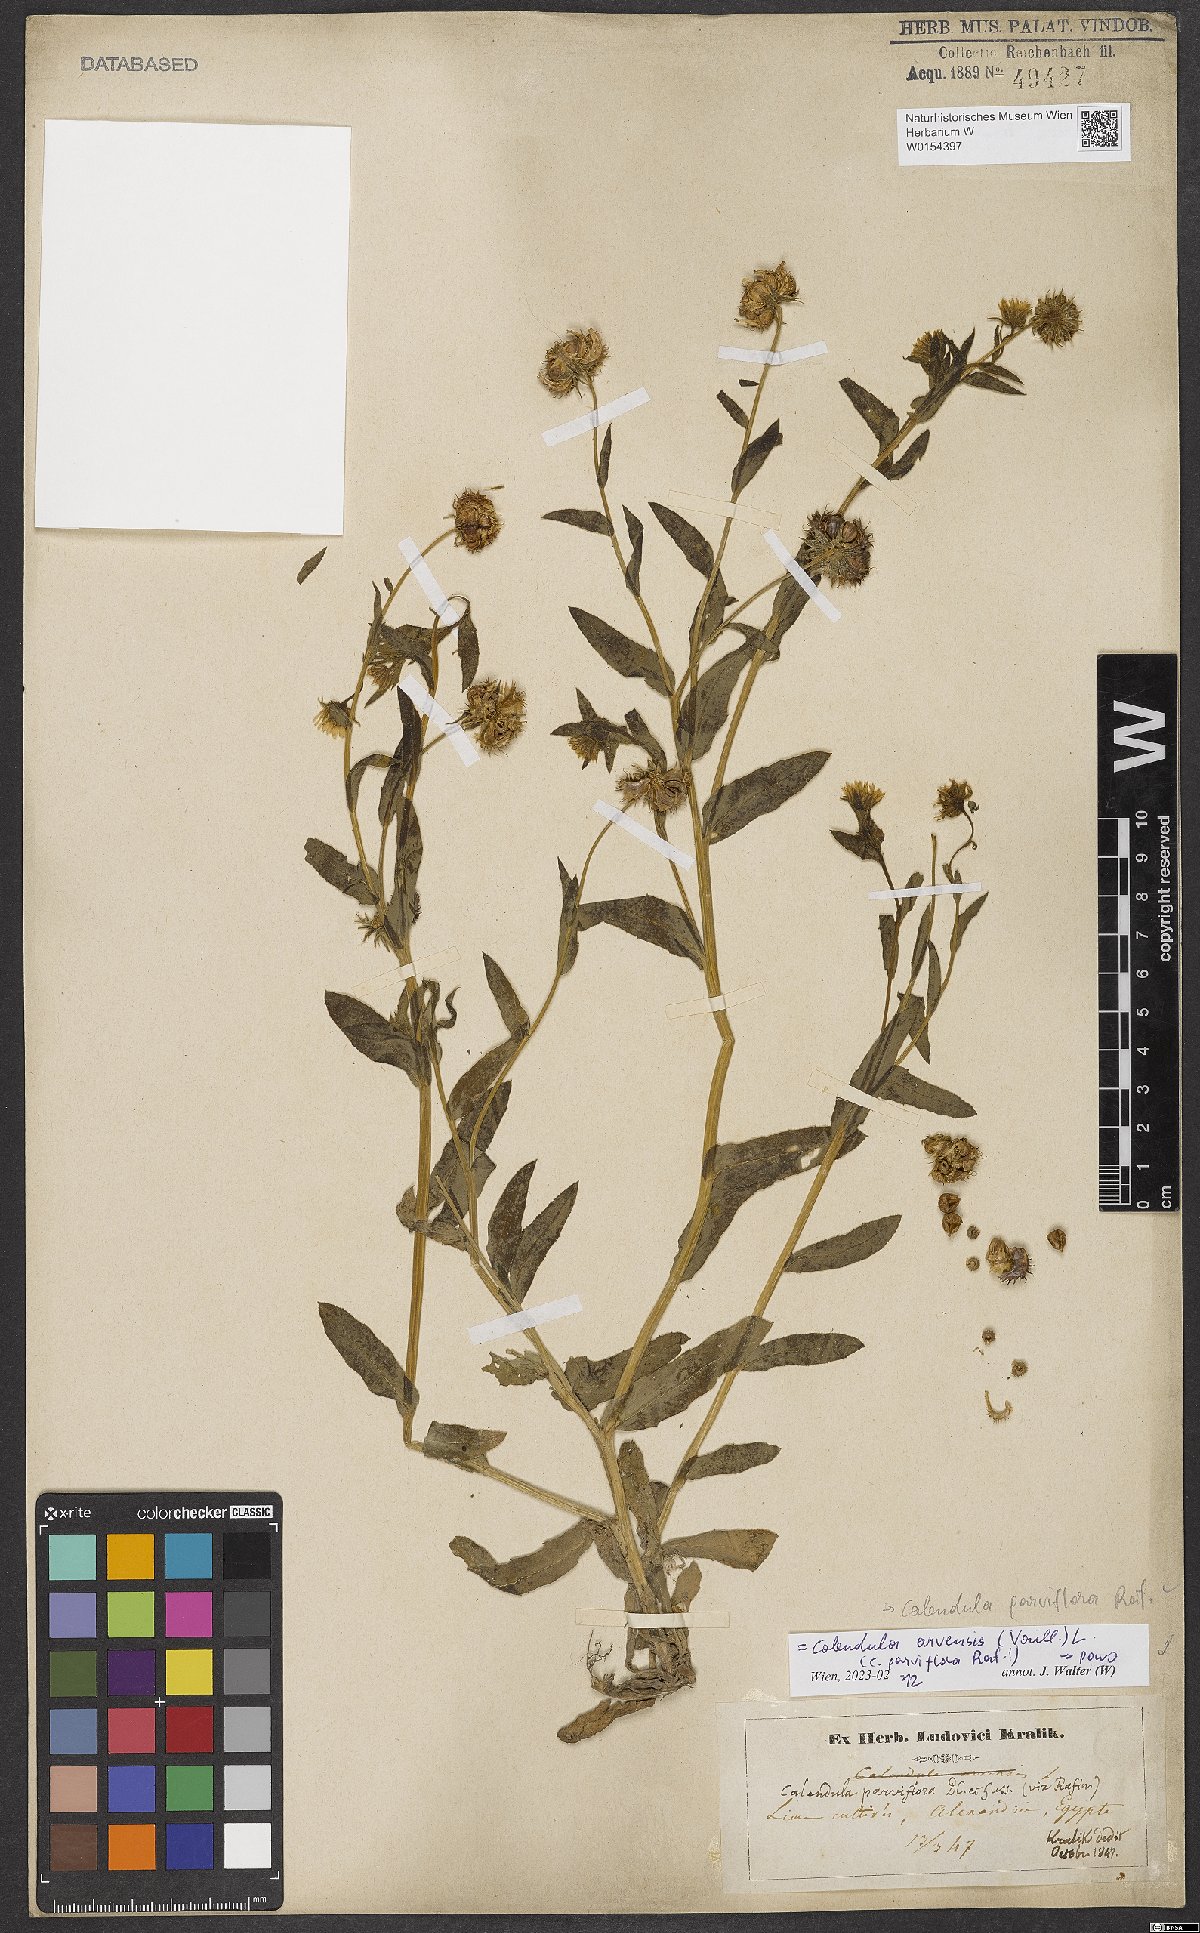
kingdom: Plantae
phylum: Tracheophyta
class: Magnoliopsida
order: Asterales
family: Asteraceae
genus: Calendula
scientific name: Calendula arvensis
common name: Field marigold
